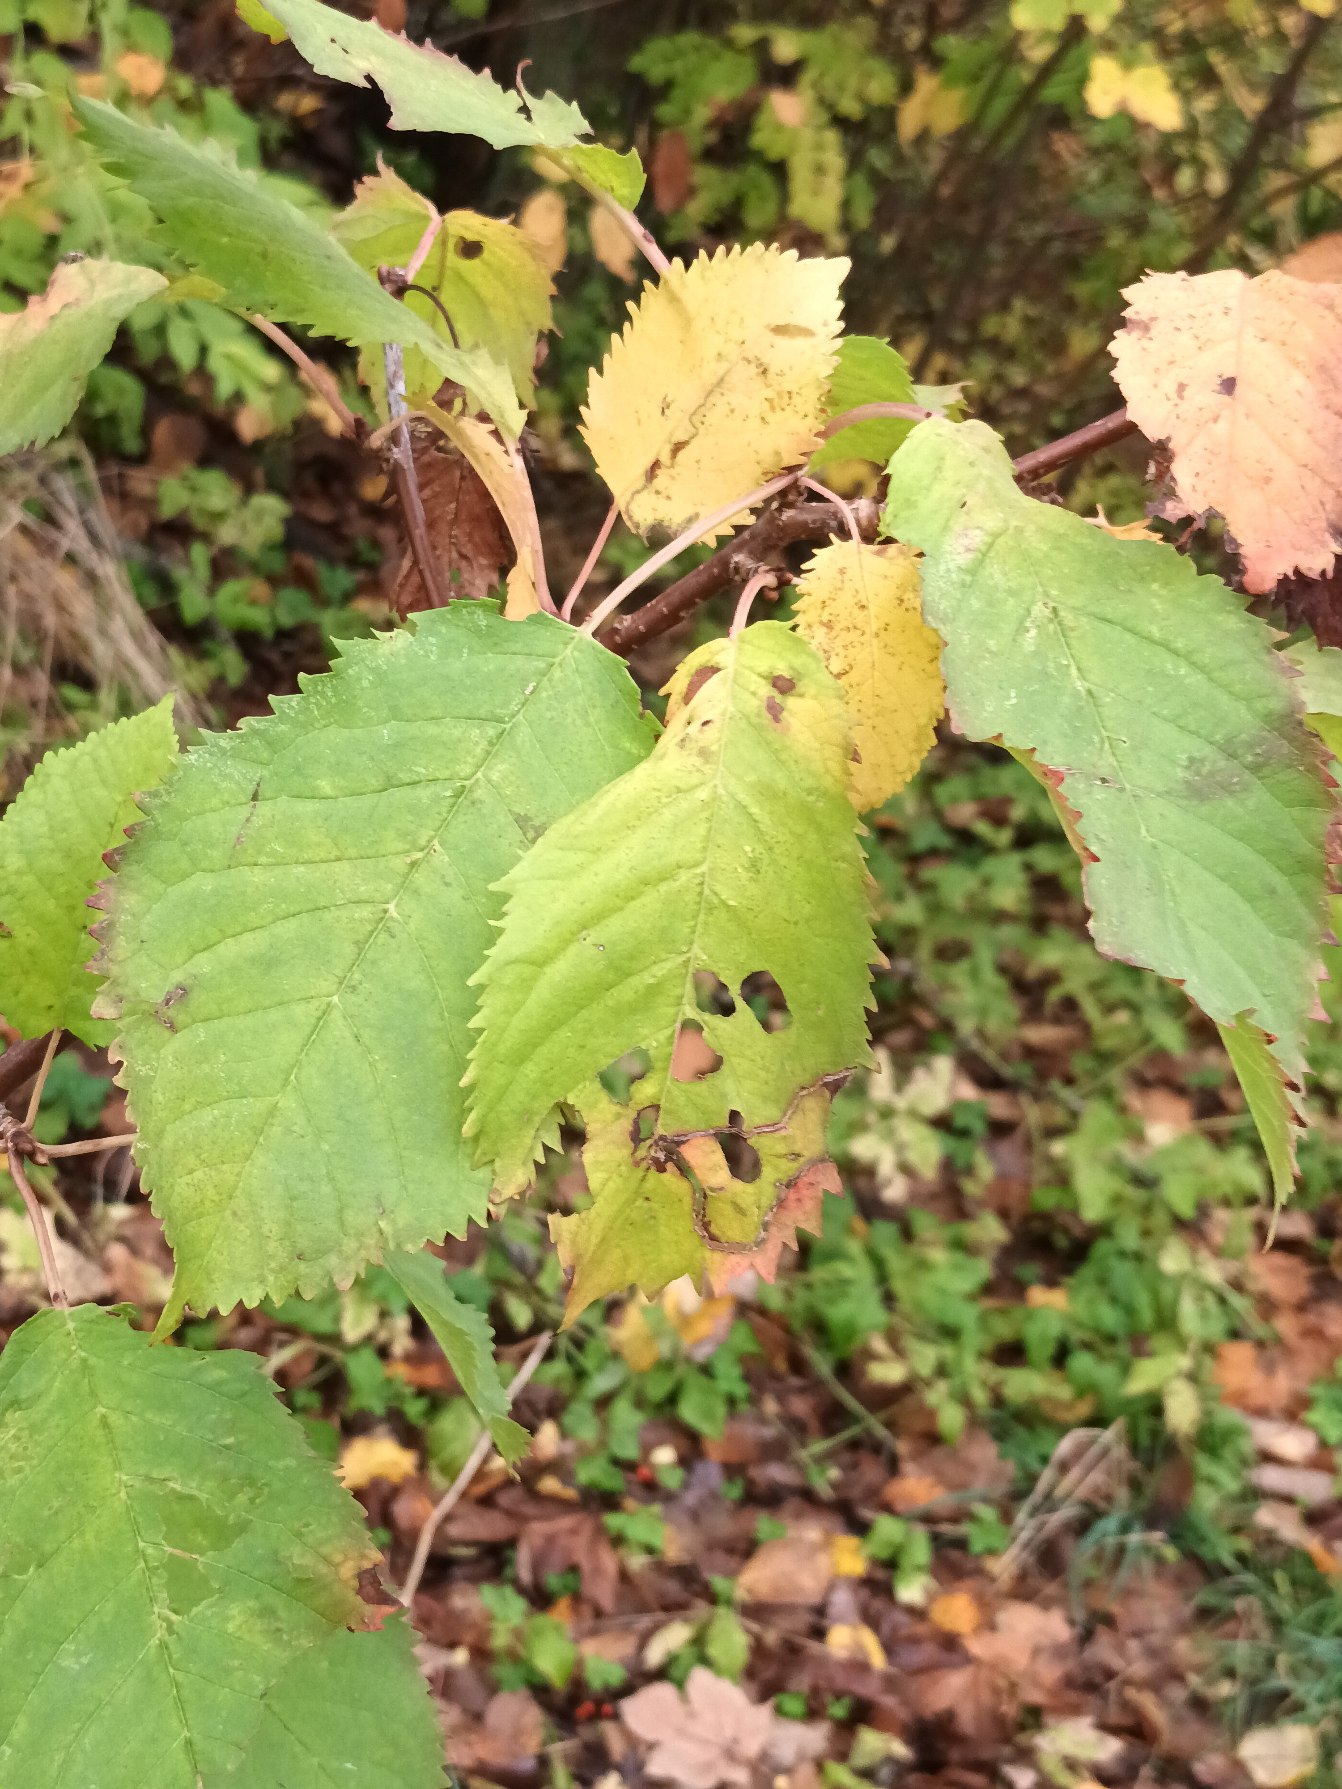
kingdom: Plantae
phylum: Tracheophyta
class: Magnoliopsida
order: Rosales
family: Rosaceae
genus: Prunus
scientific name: Prunus avium
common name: Fugle-kirsebær
